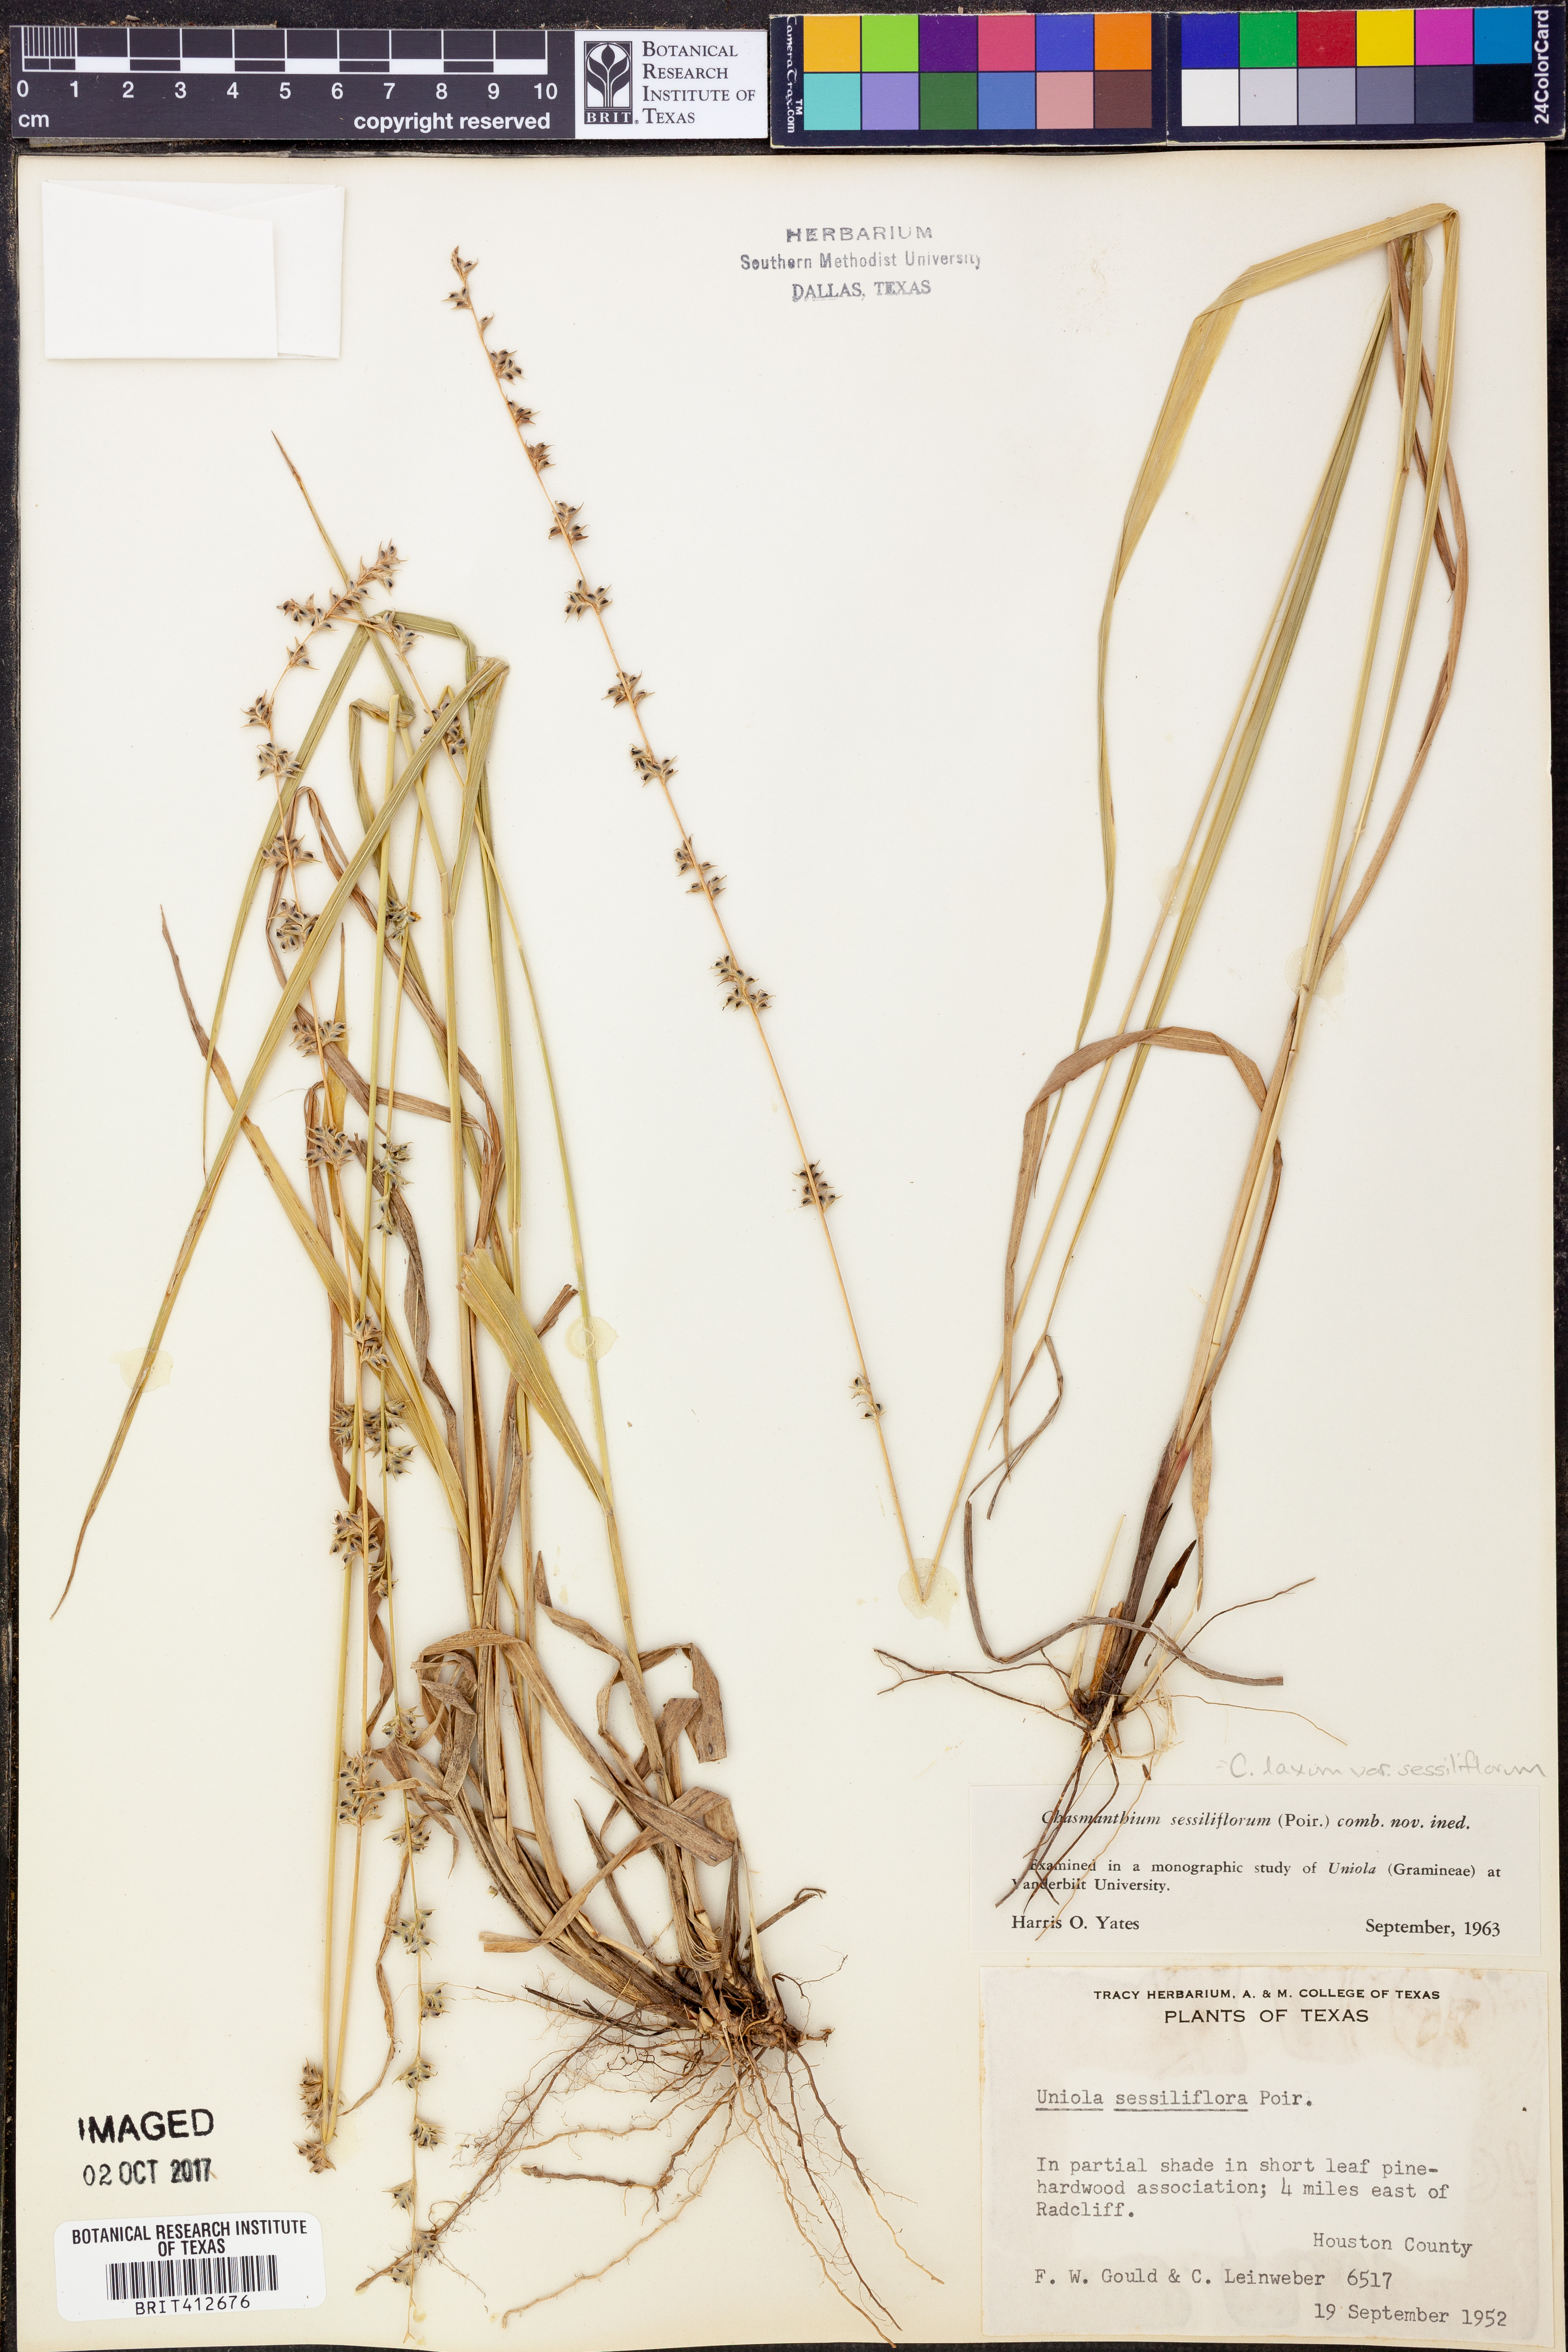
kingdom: Plantae
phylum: Tracheophyta
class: Liliopsida
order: Poales
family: Poaceae
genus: Chasmanthium
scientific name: Chasmanthium laxum
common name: Slender chasmanthium
